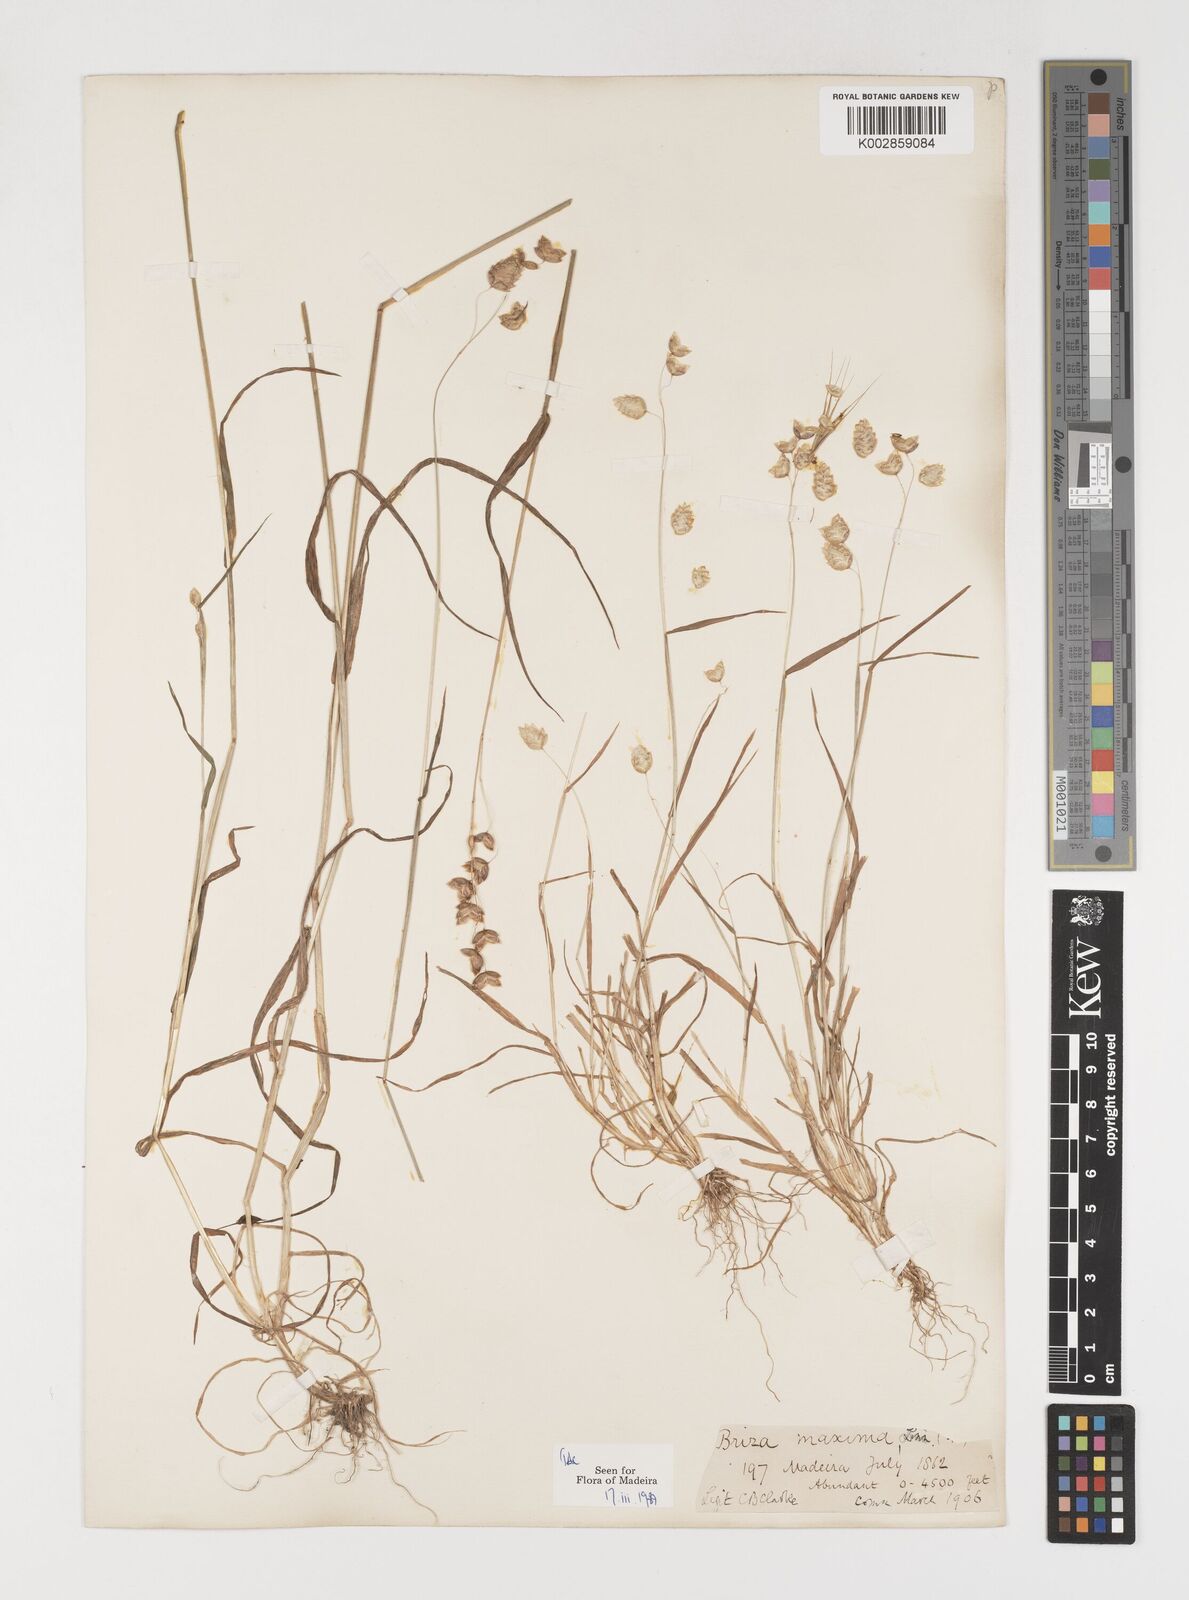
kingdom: Plantae
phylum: Tracheophyta
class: Liliopsida
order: Poales
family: Poaceae
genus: Briza
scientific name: Briza maxima
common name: Big quakinggrass
